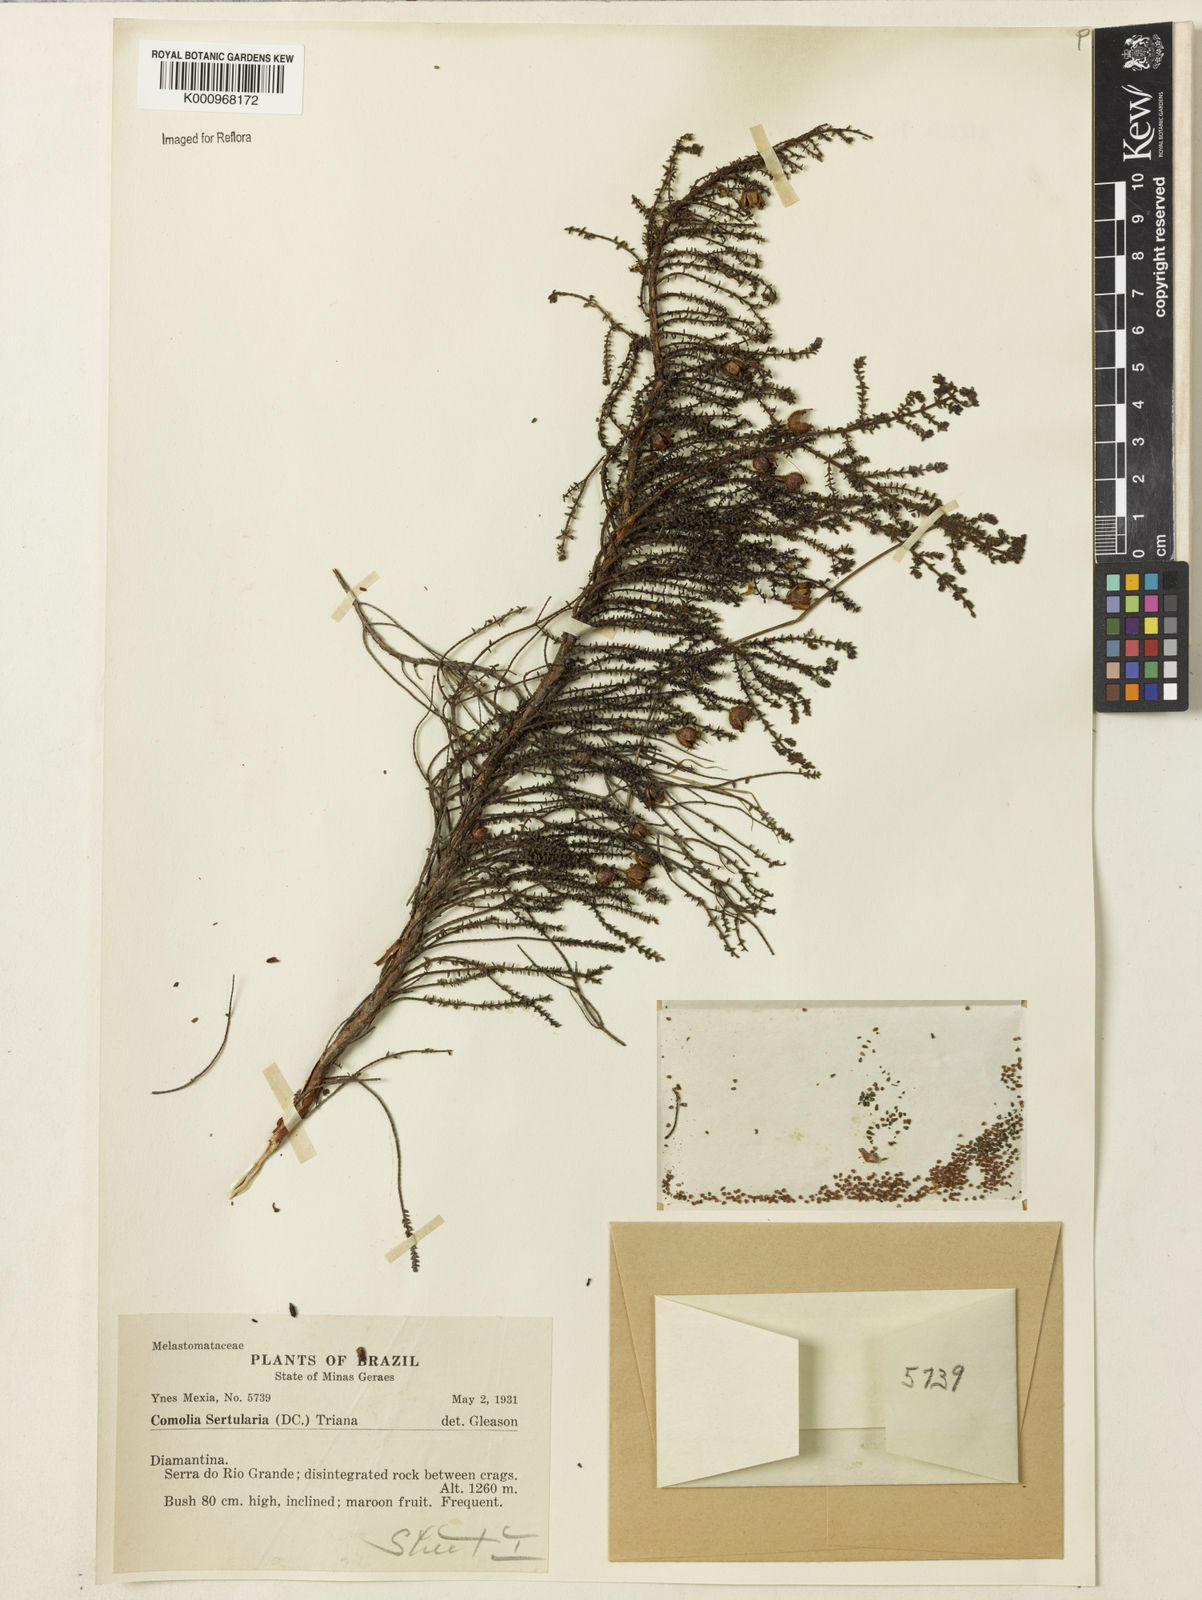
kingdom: Plantae
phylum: Tracheophyta
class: Magnoliopsida
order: Myrtales
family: Melastomataceae
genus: Fritzschia
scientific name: Fritzschia sertularia
